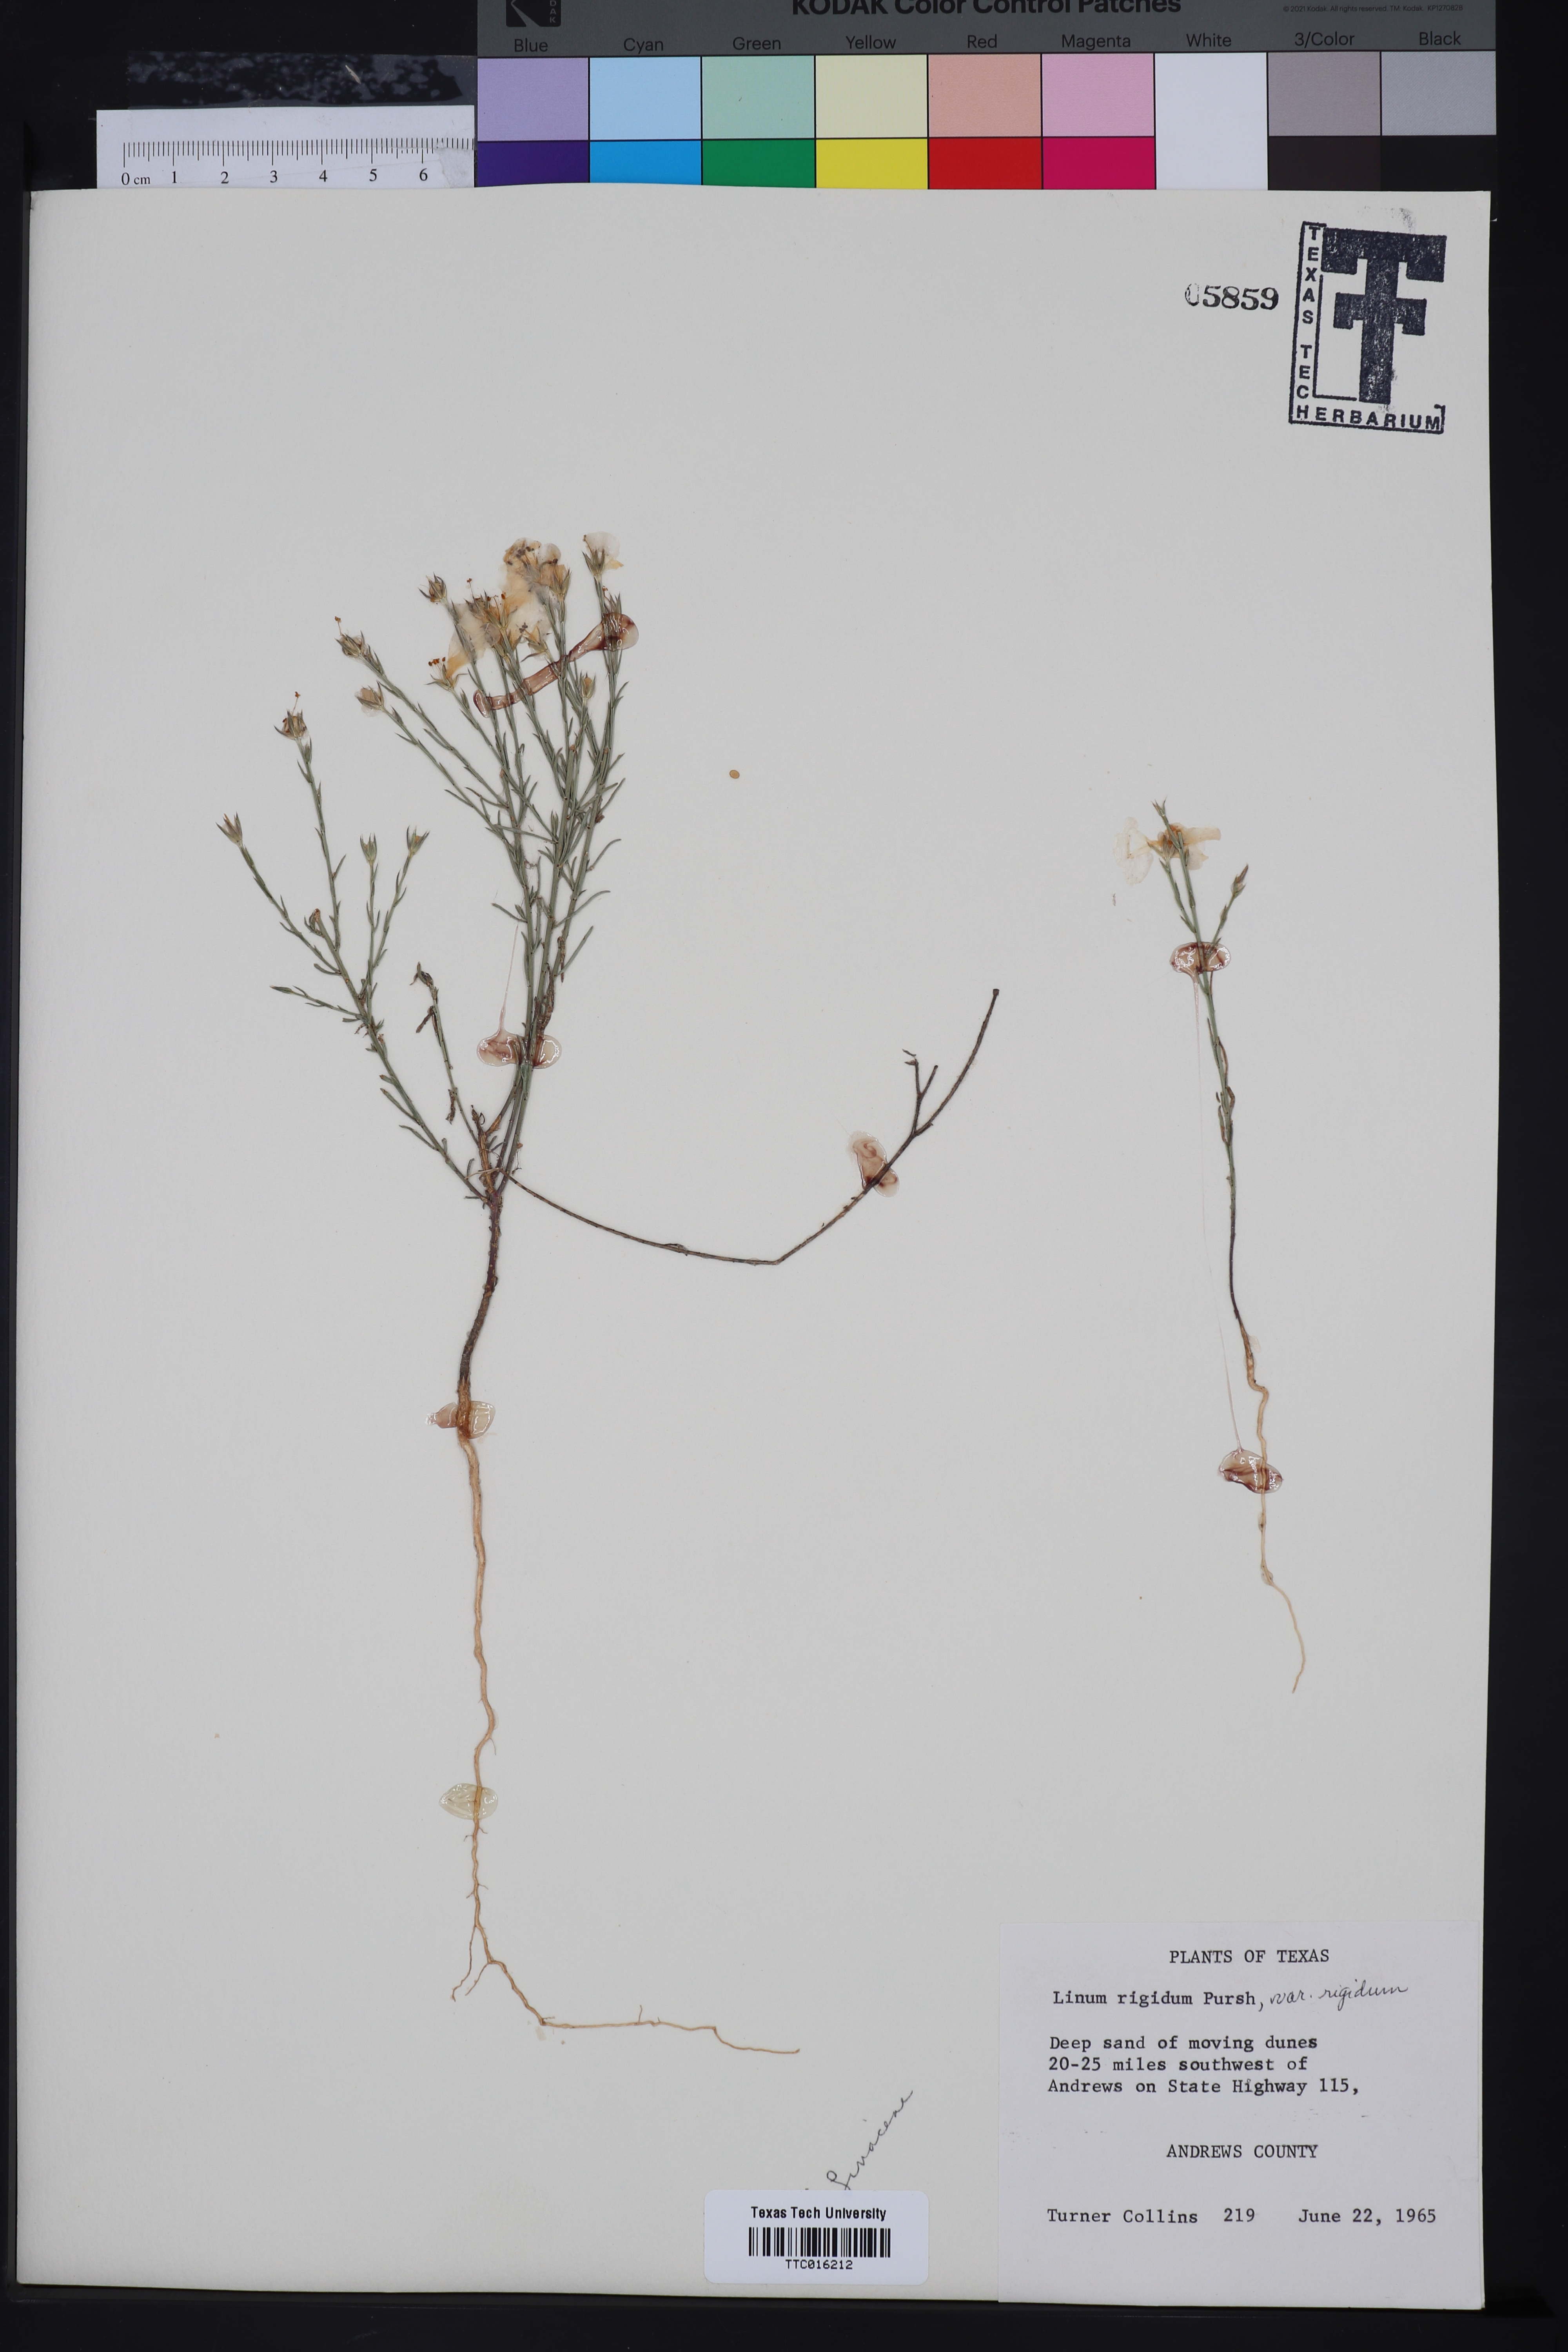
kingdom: Plantae
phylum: Tracheophyta
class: Magnoliopsida
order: Malpighiales
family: Linaceae
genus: Linum
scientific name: Linum rigidum
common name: Stiff-stem flax
